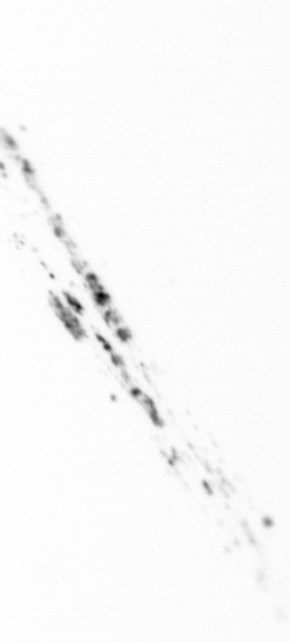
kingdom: Chromista
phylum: Ochrophyta
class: Bacillariophyceae
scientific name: Bacillariophyceae
